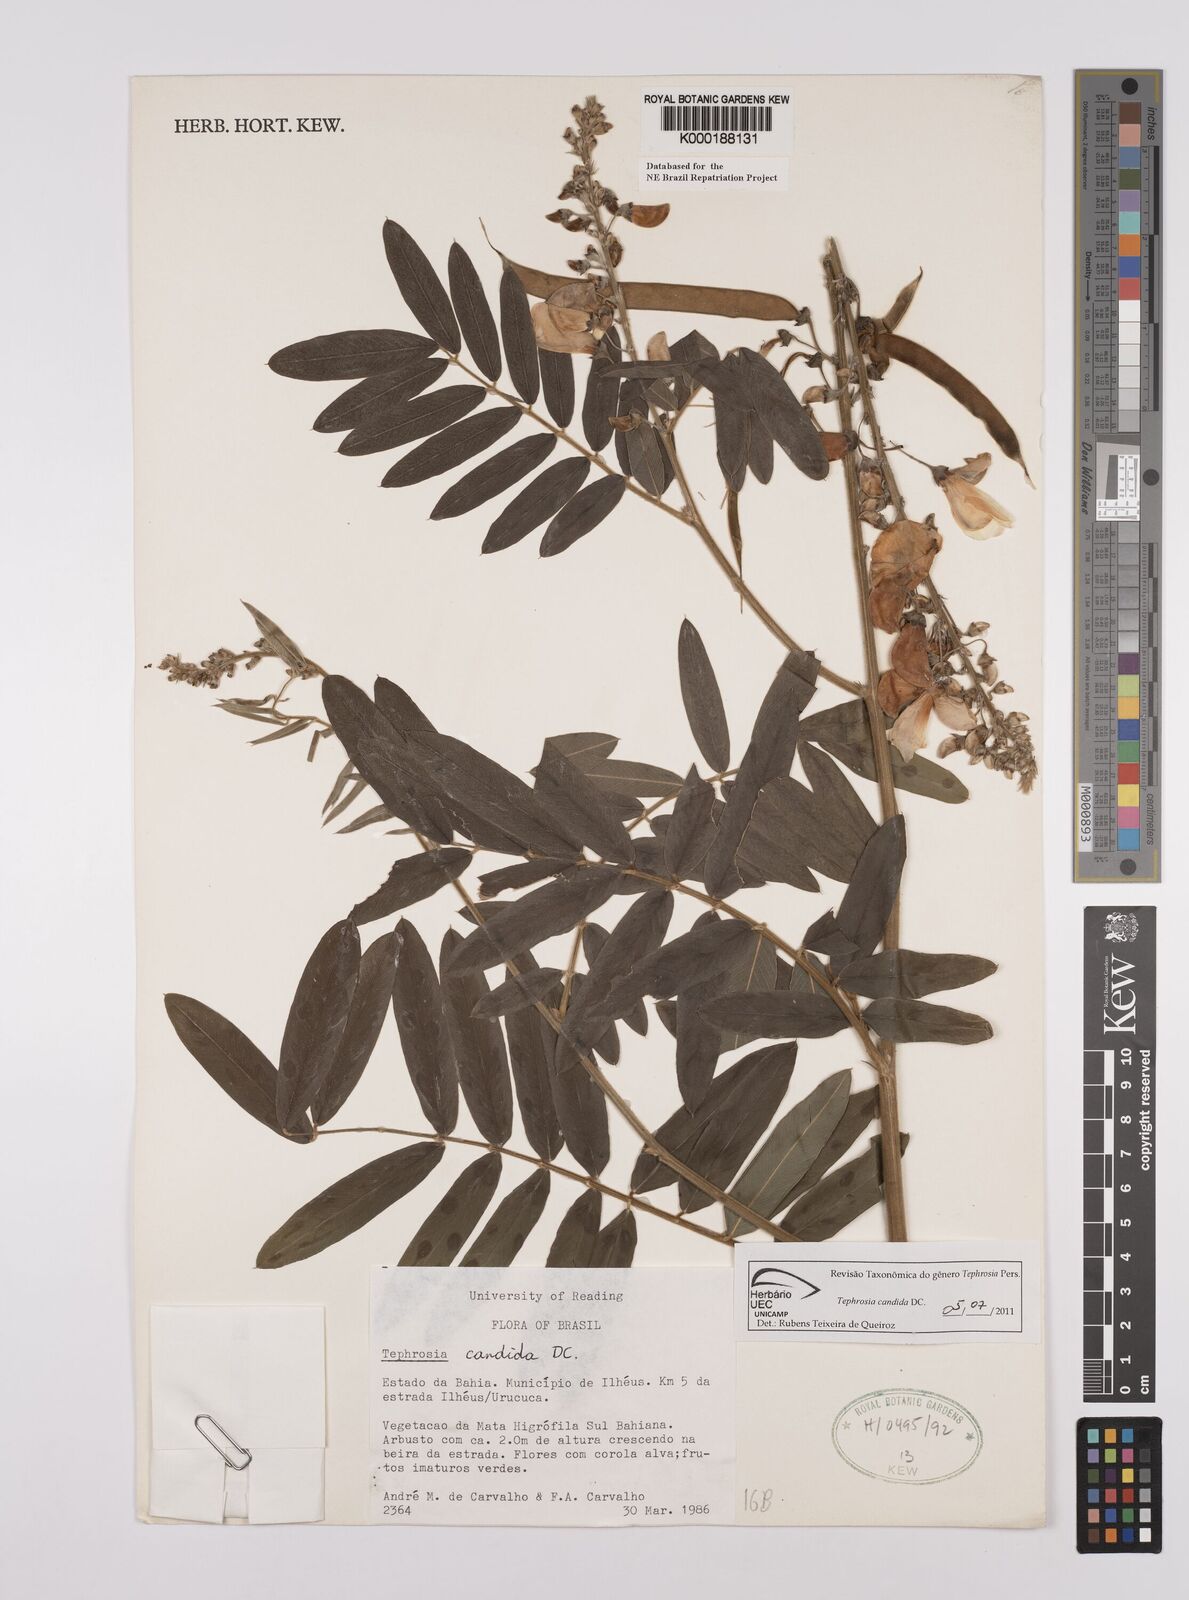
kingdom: Plantae
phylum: Tracheophyta
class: Magnoliopsida
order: Fabales
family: Fabaceae
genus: Tephrosia
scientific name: Tephrosia candida
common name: White tephrosia
